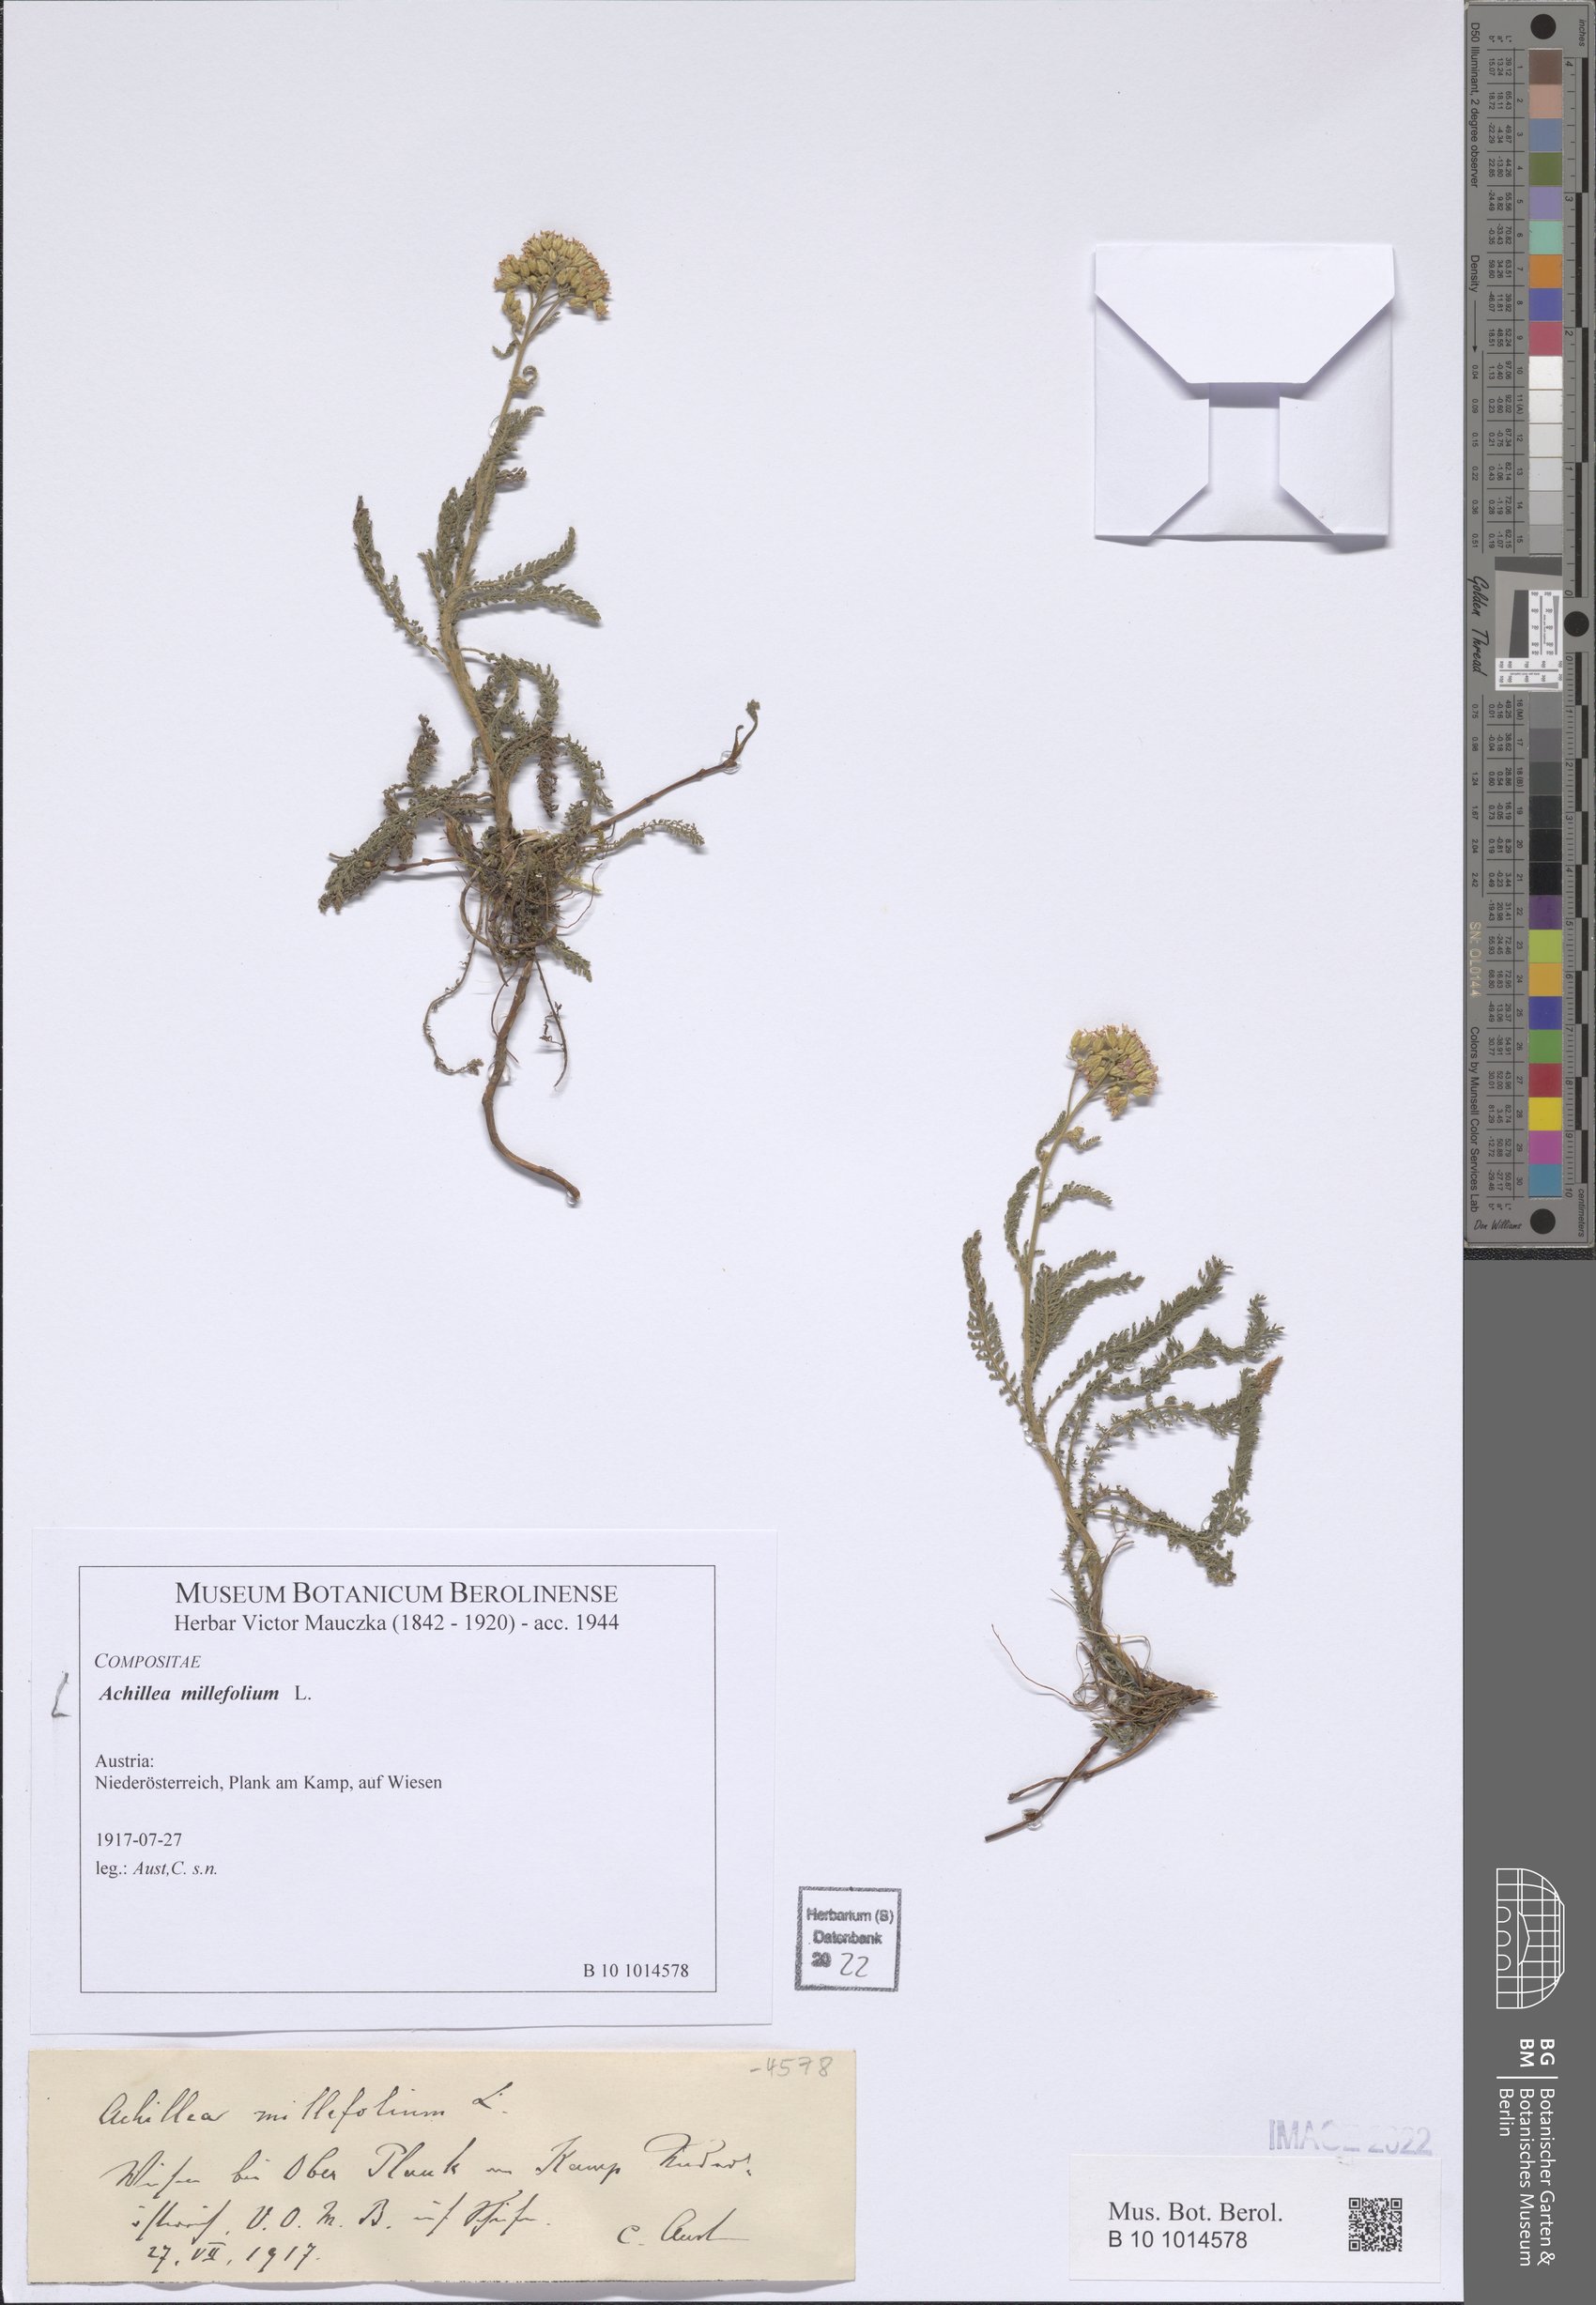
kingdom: Plantae
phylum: Tracheophyta
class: Magnoliopsida
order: Asterales
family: Asteraceae
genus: Achillea
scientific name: Achillea millefolium
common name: Yarrow
